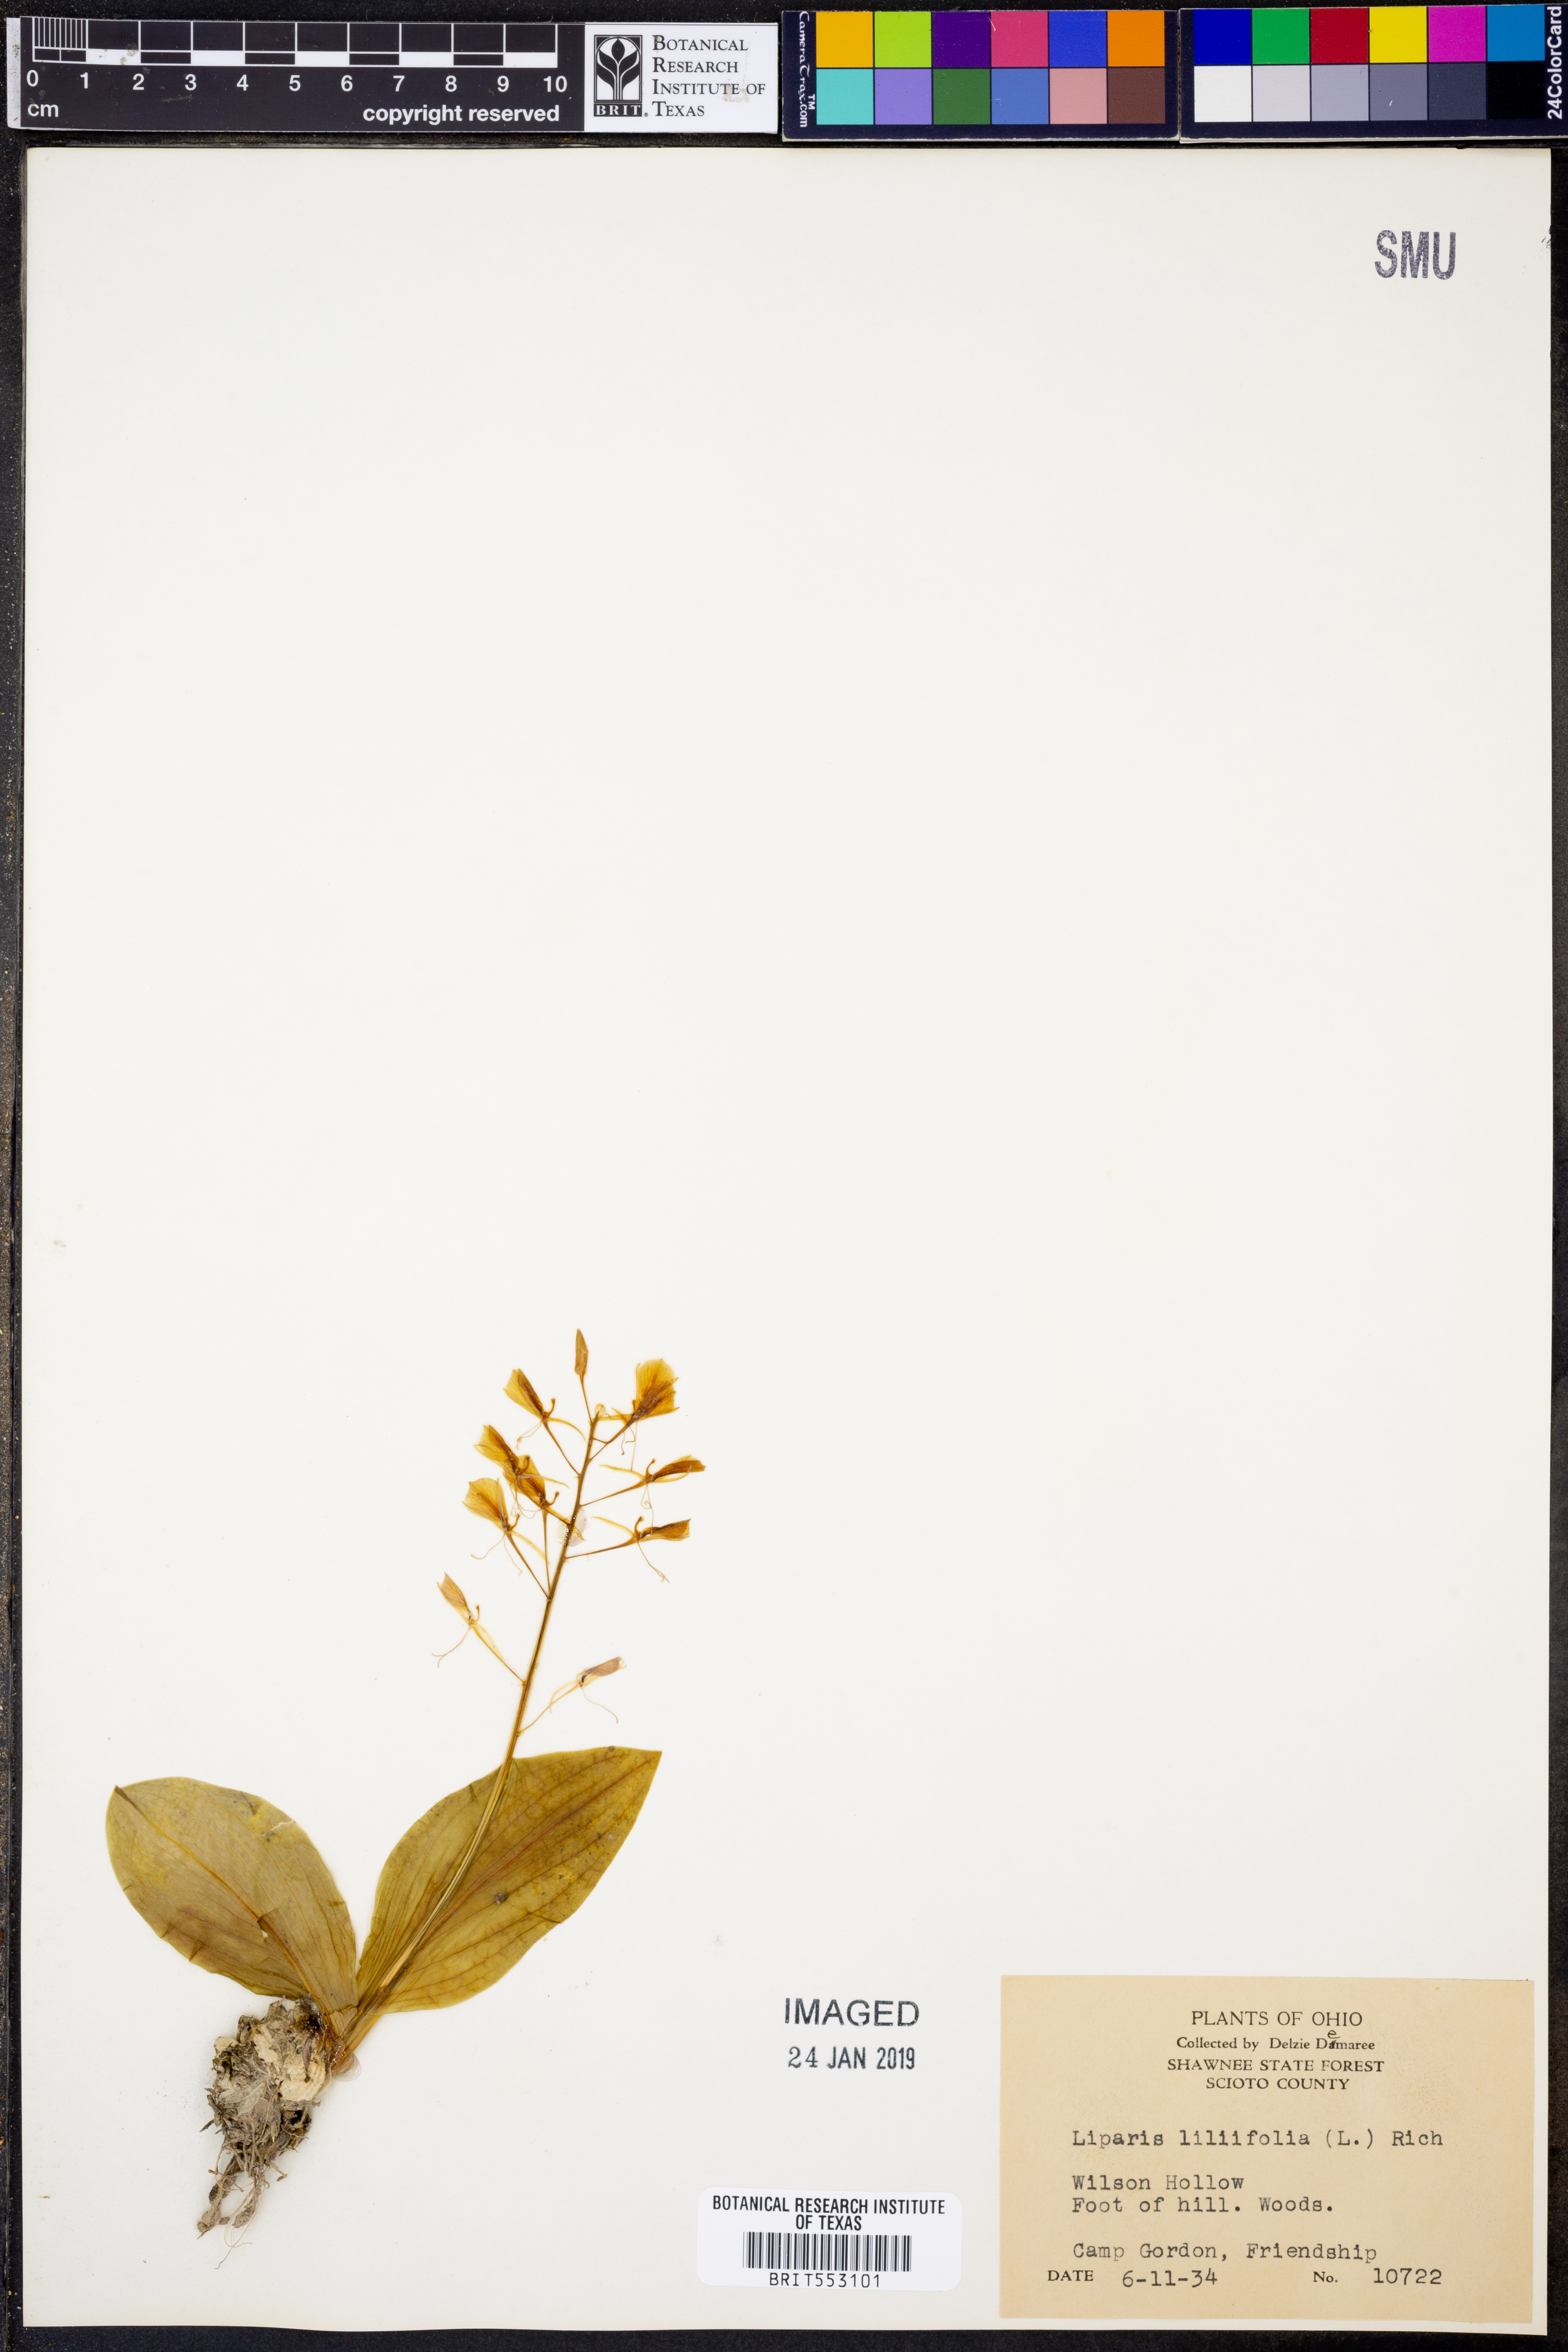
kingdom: Plantae
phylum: Tracheophyta
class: Liliopsida
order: Asparagales
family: Orchidaceae
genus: Liparis
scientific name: Liparis liliifolia
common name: Brown wide-lip orchid
